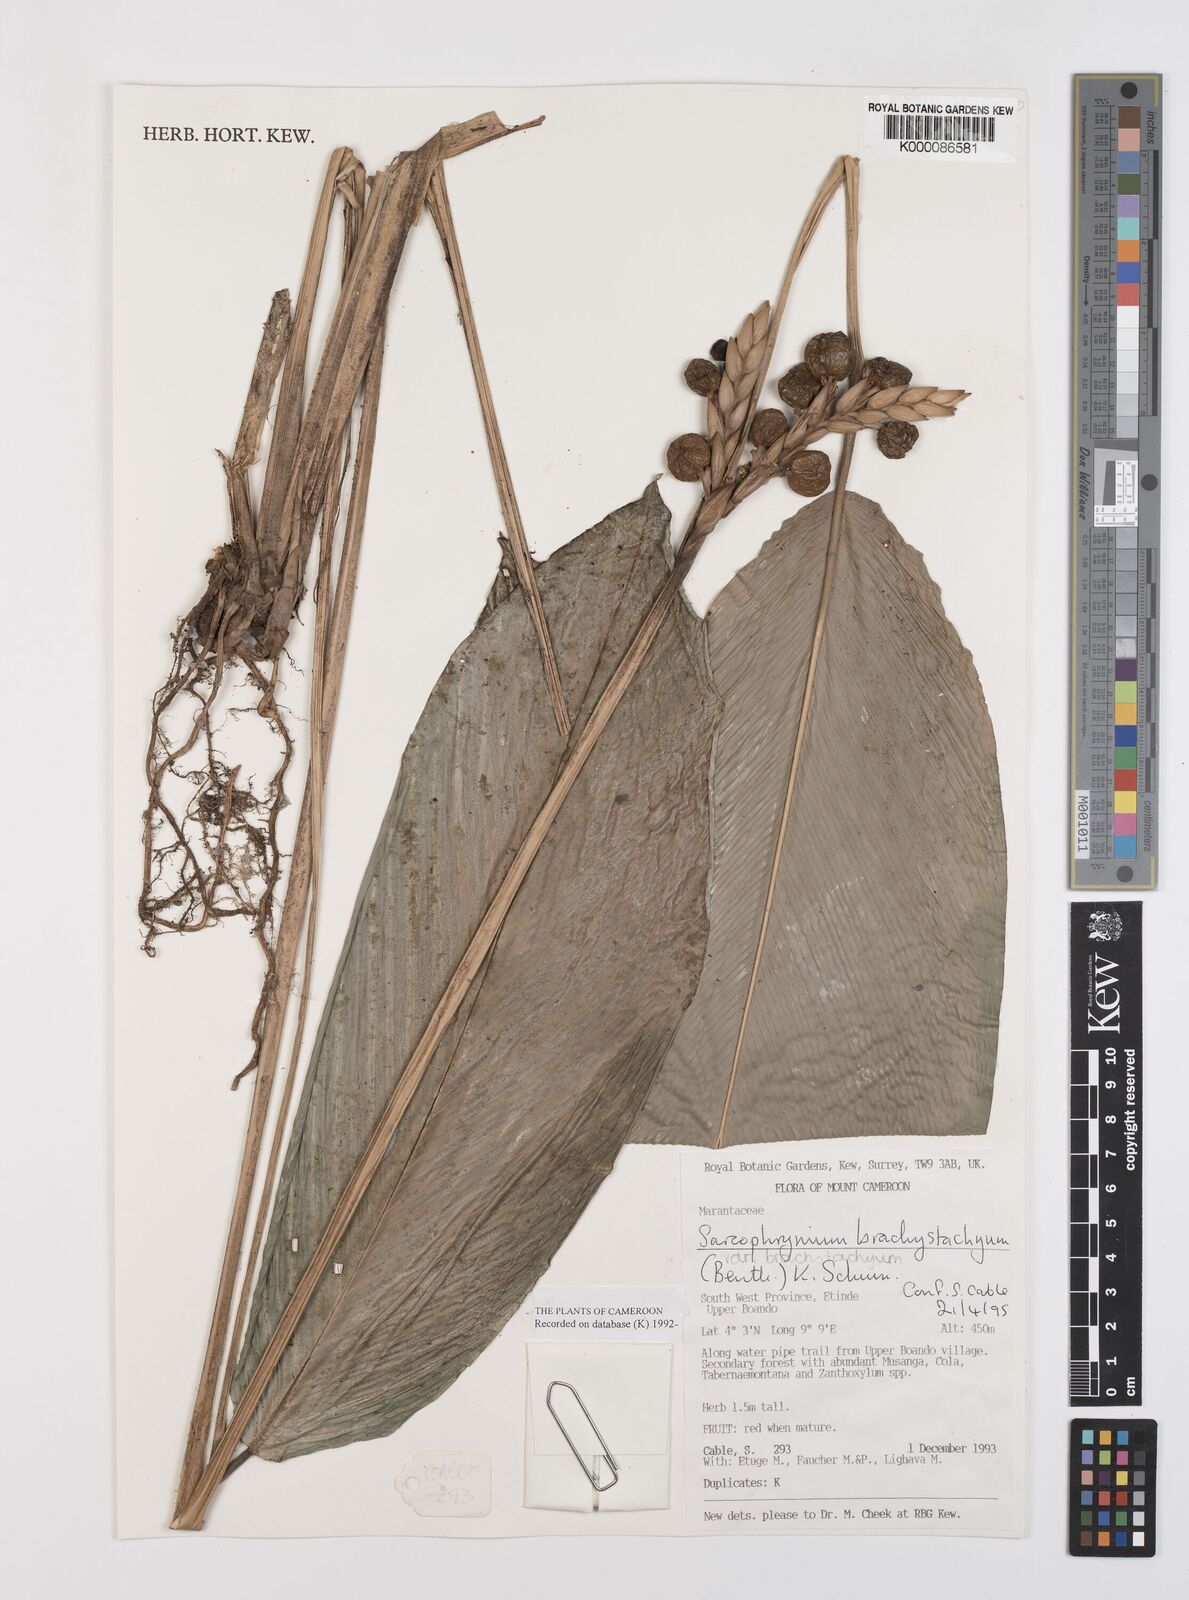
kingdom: Plantae
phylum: Tracheophyta
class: Liliopsida
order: Zingiberales
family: Marantaceae
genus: Sarcophrynium
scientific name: Sarcophrynium
